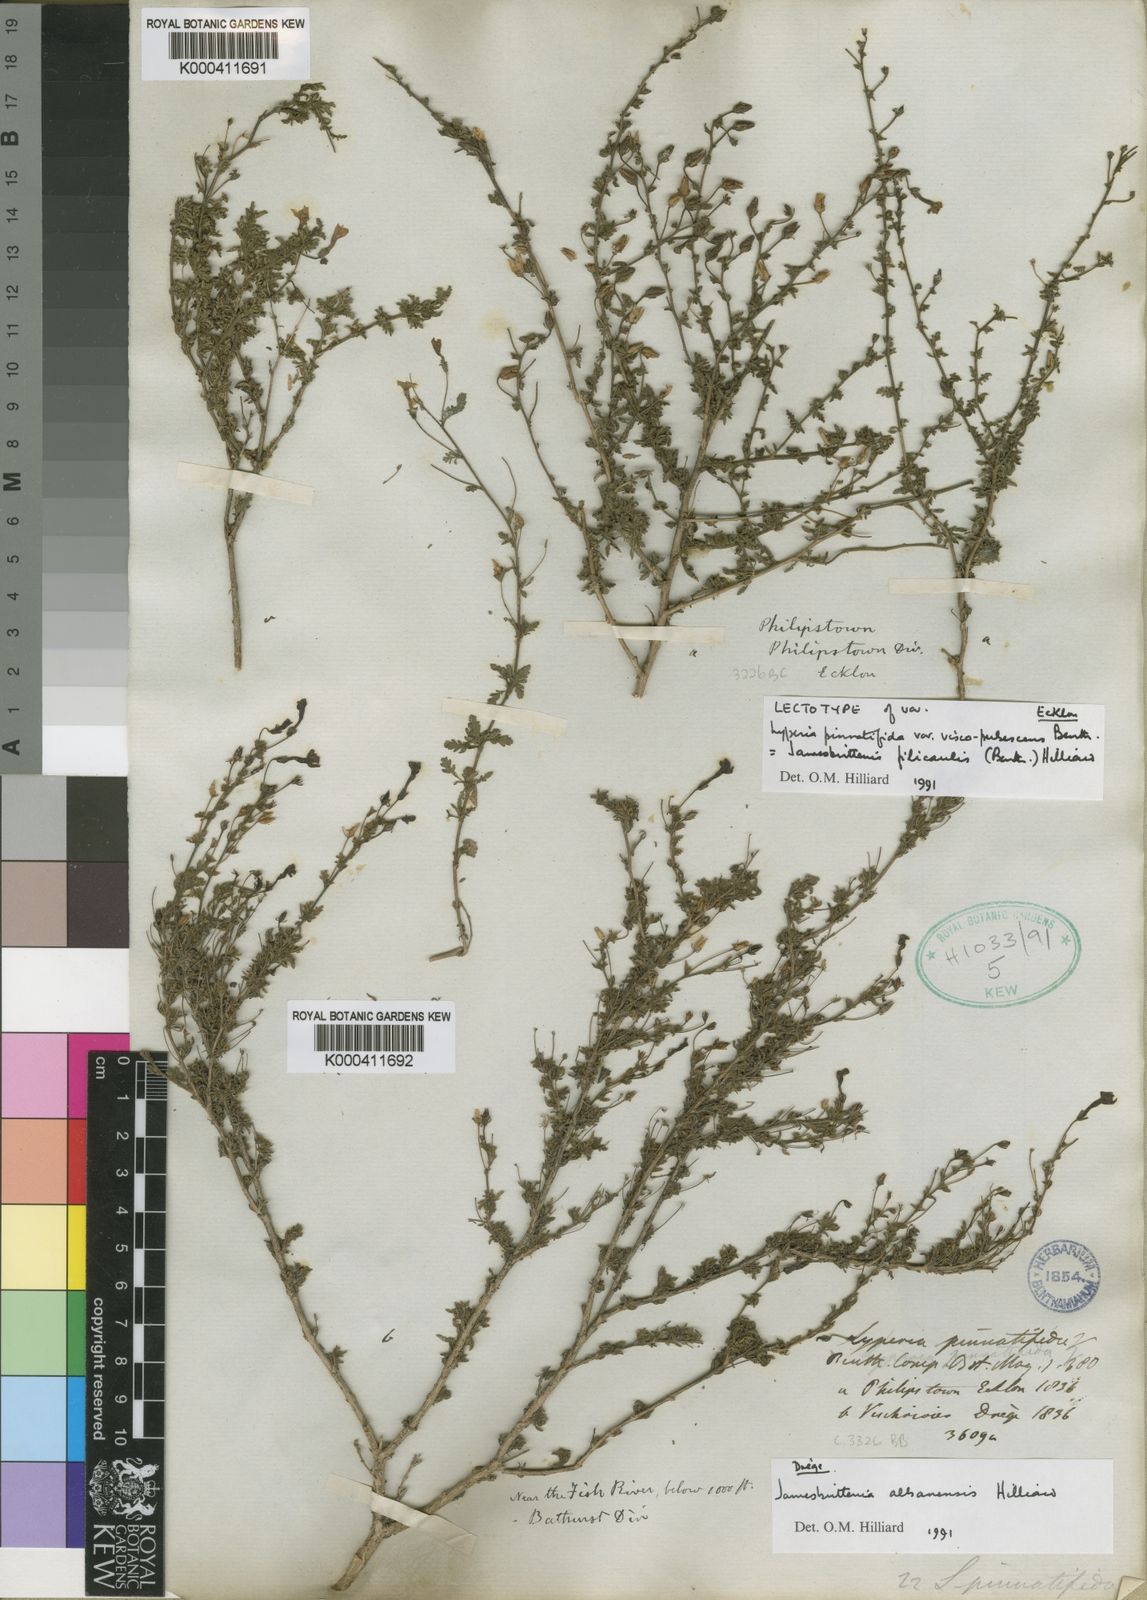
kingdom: Plantae
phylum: Tracheophyta
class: Magnoliopsida
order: Lamiales
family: Scrophulariaceae
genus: Jamesbrittenia
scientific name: Jamesbrittenia filicaulis
